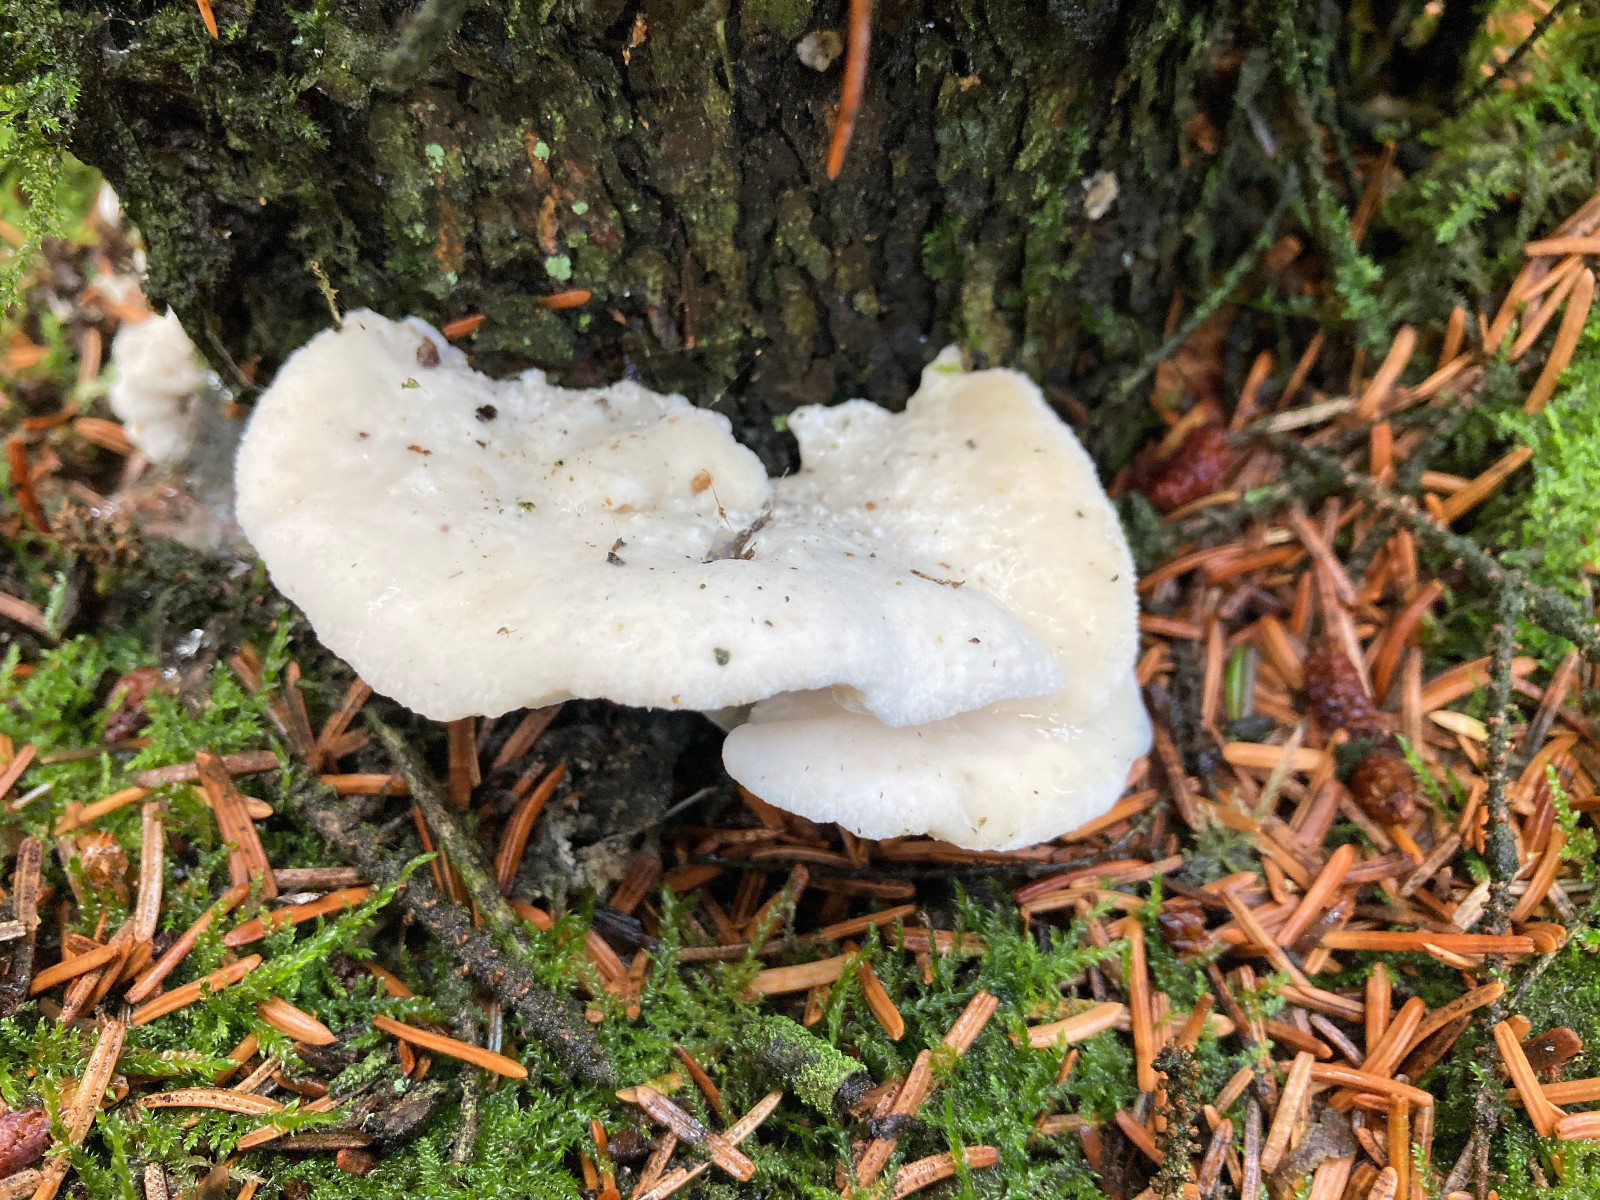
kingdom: Fungi
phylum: Basidiomycota
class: Agaricomycetes
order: Polyporales
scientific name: Polyporales
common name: poresvampordenen
